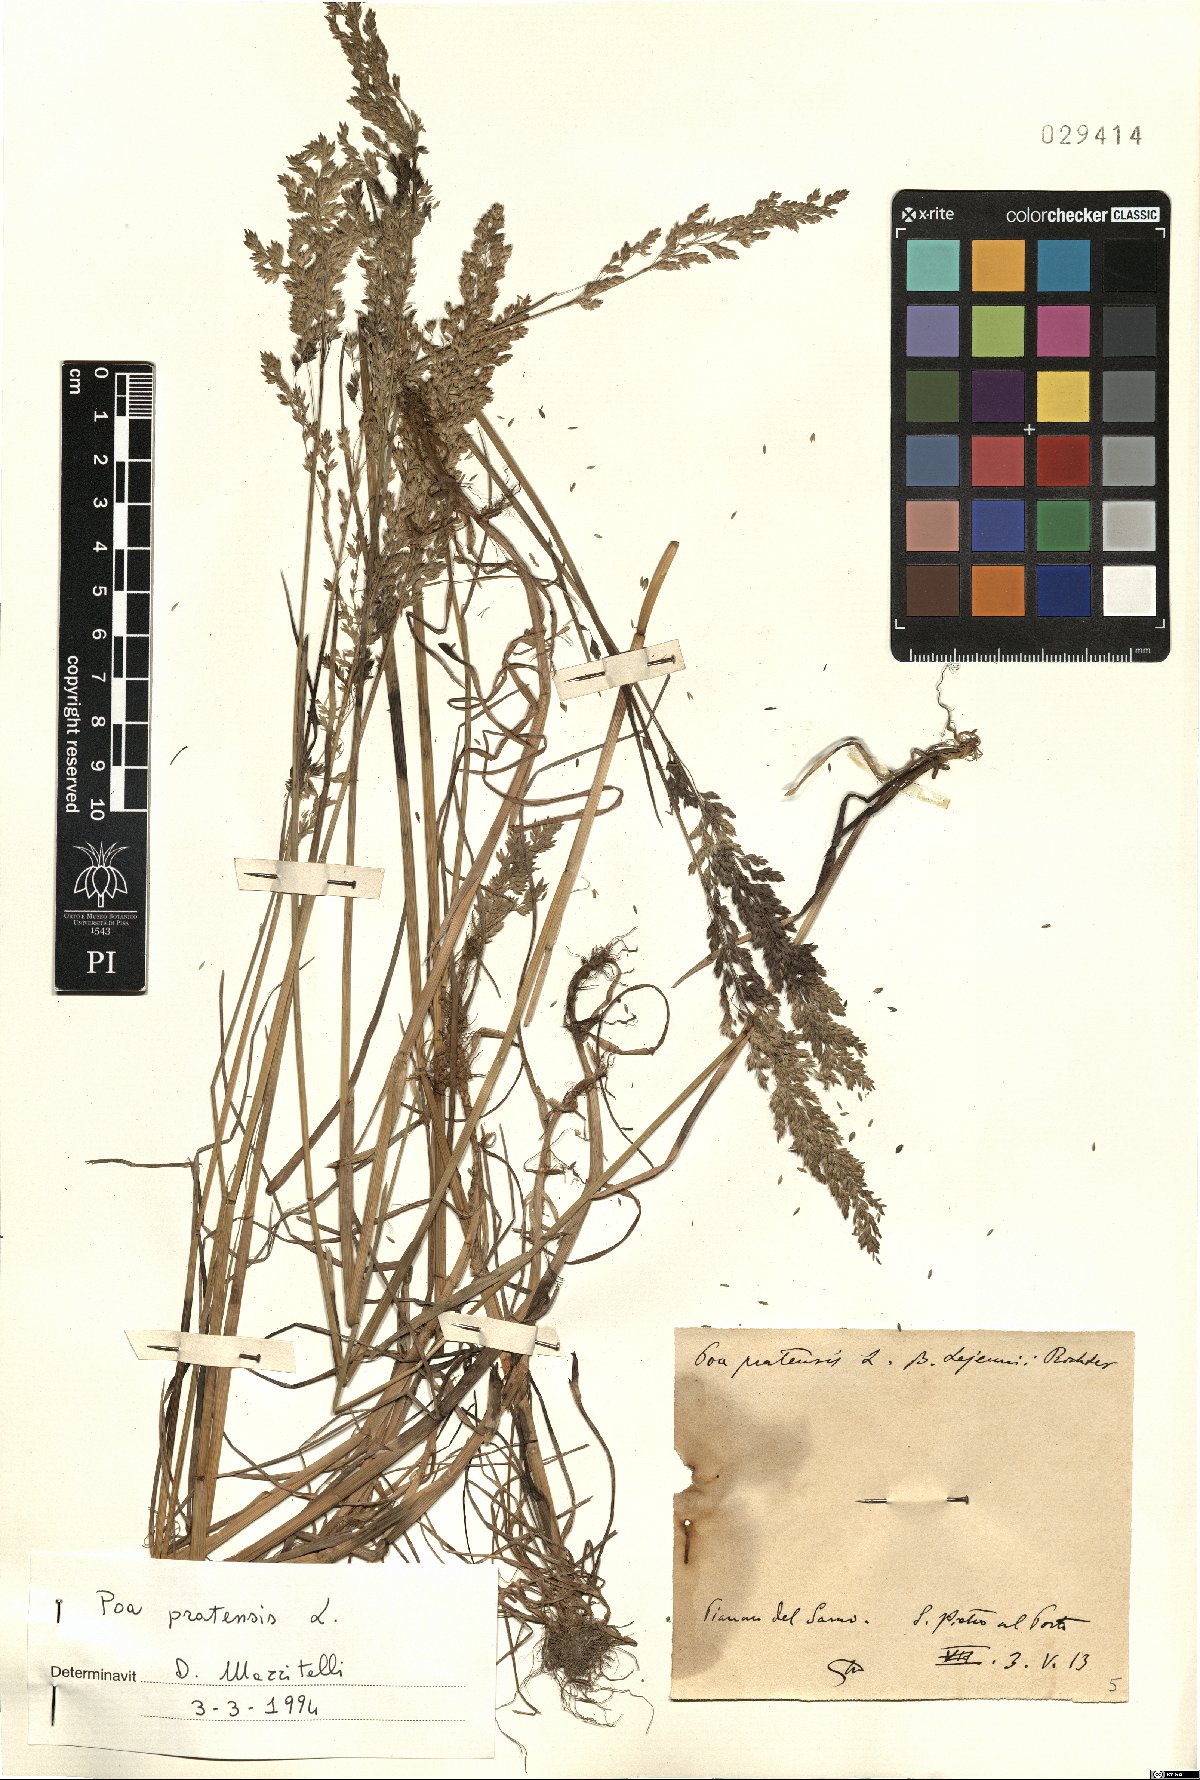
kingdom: Plantae
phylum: Tracheophyta
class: Liliopsida
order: Poales
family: Poaceae
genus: Poa
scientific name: Poa pratensis
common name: Kentucky bluegrass
